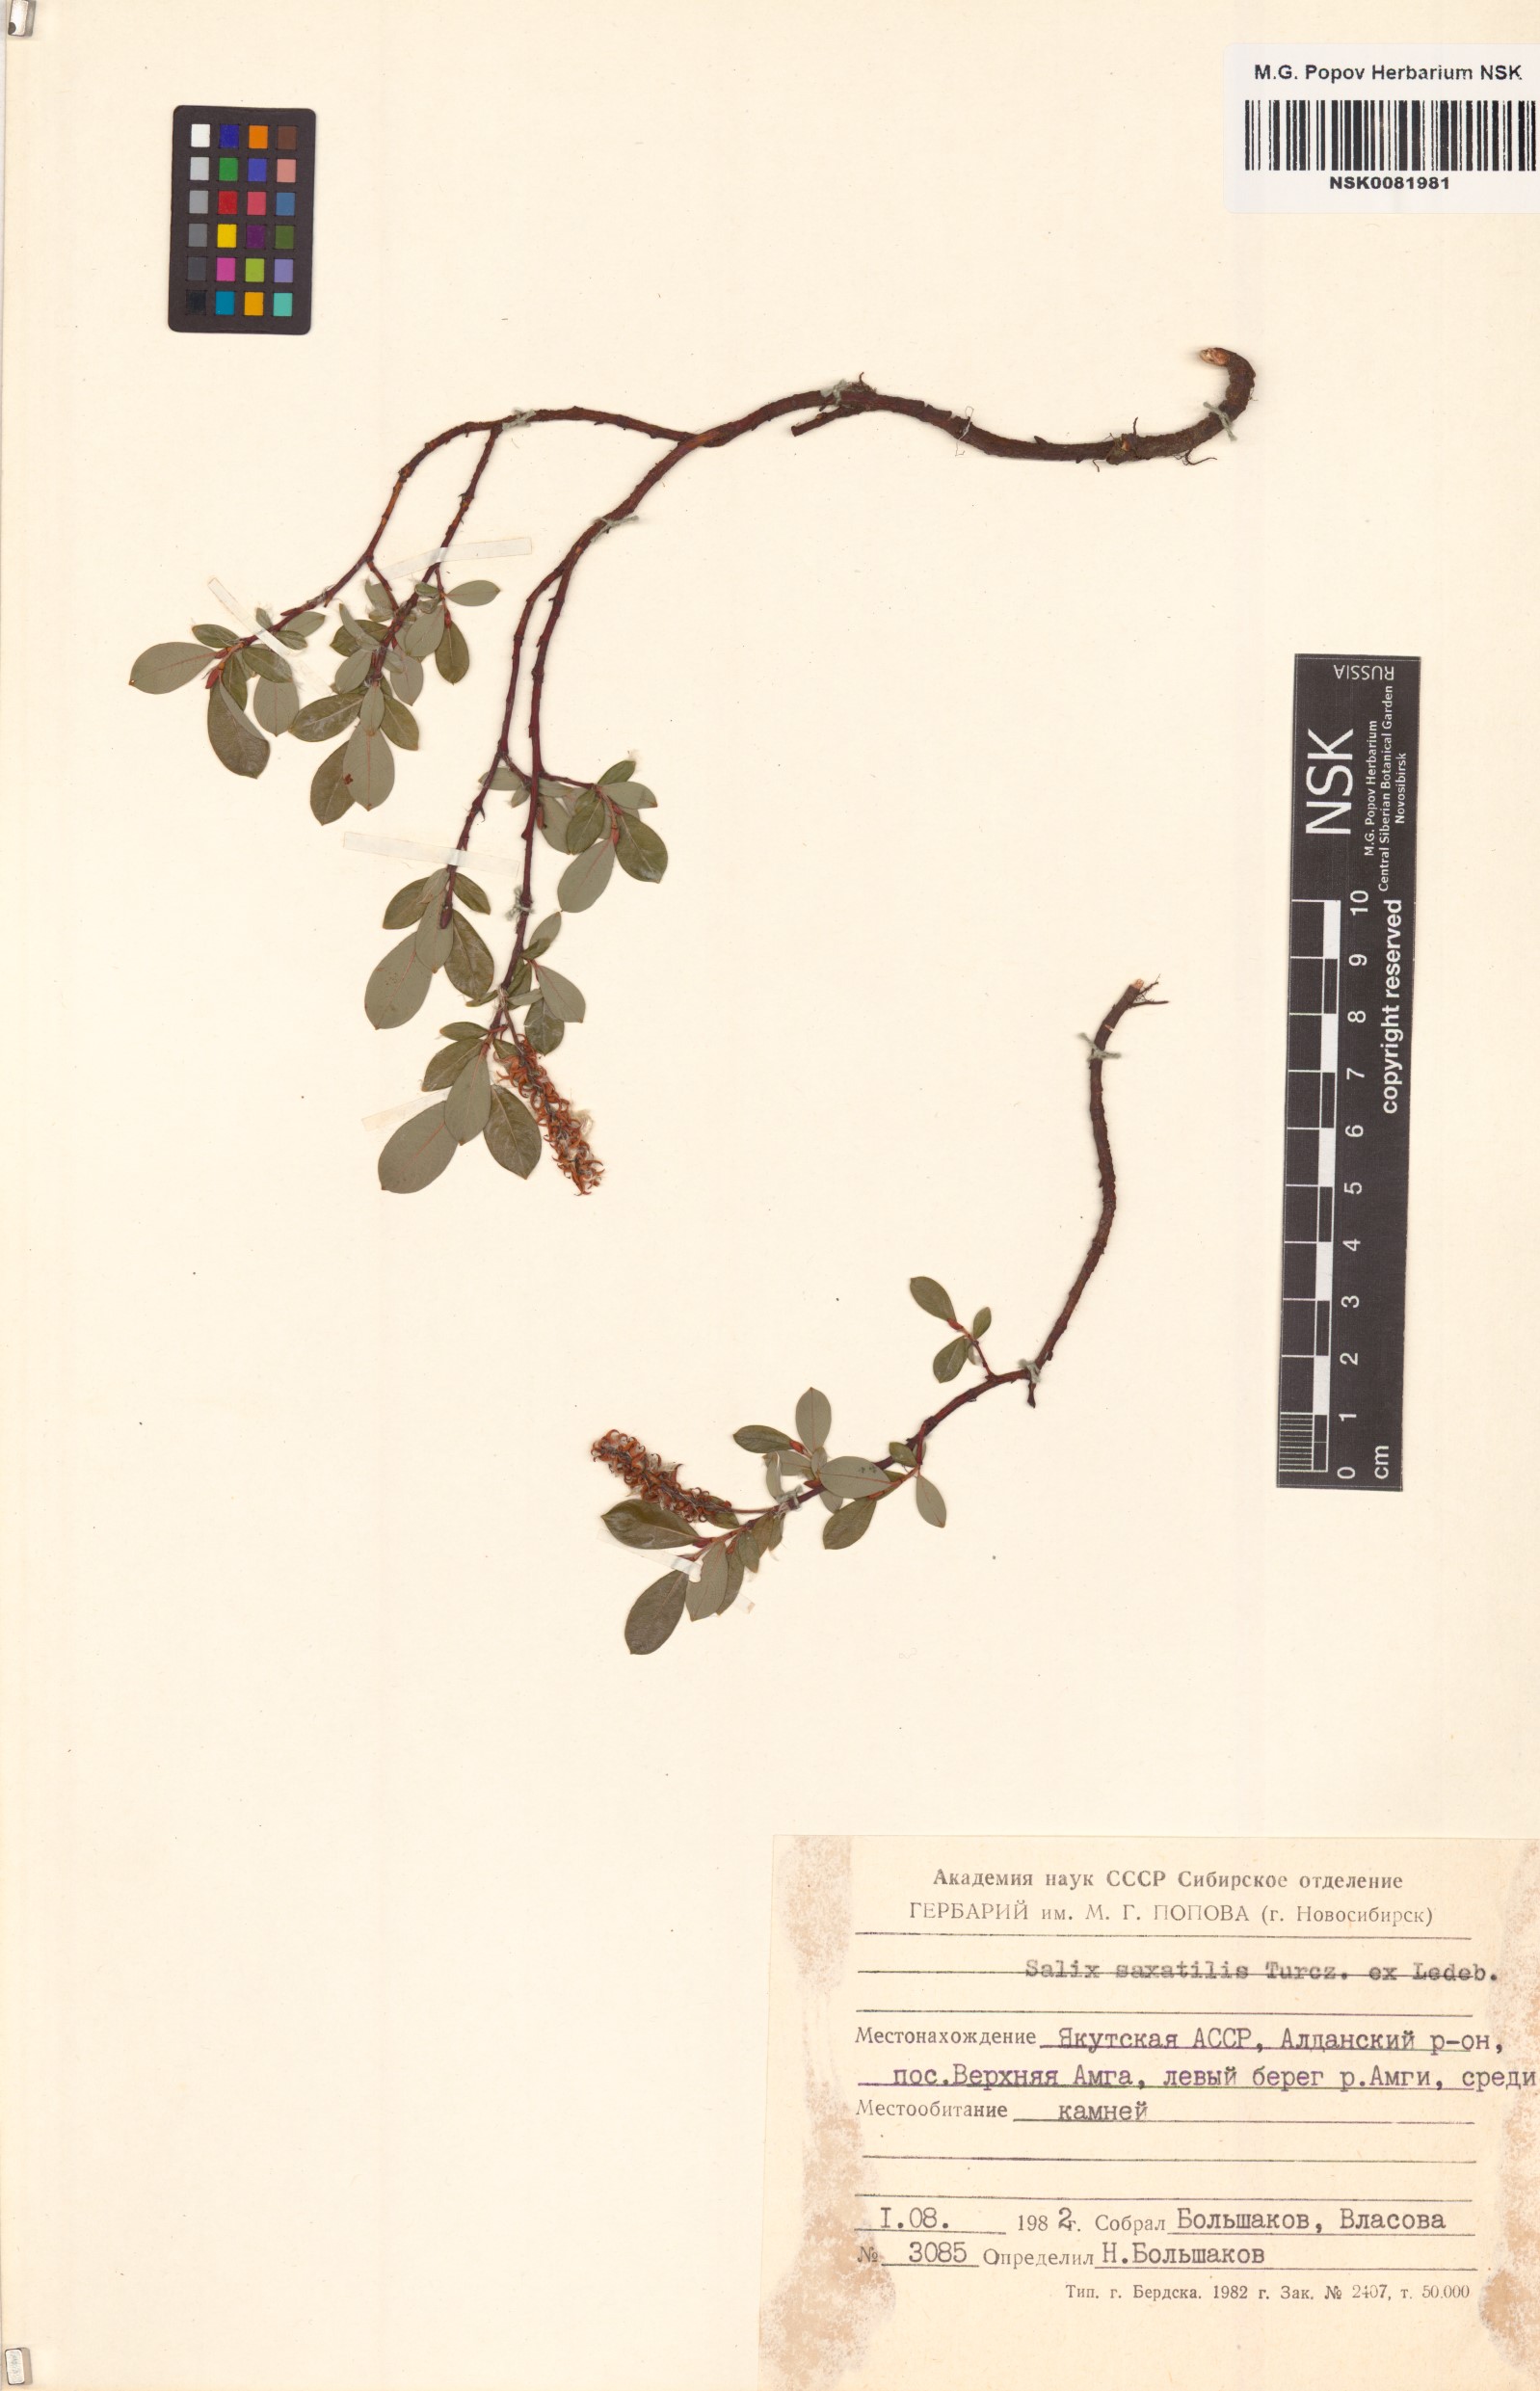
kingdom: Plantae
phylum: Tracheophyta
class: Magnoliopsida
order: Malpighiales
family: Salicaceae
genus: Salix
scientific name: Salix saxatilis
